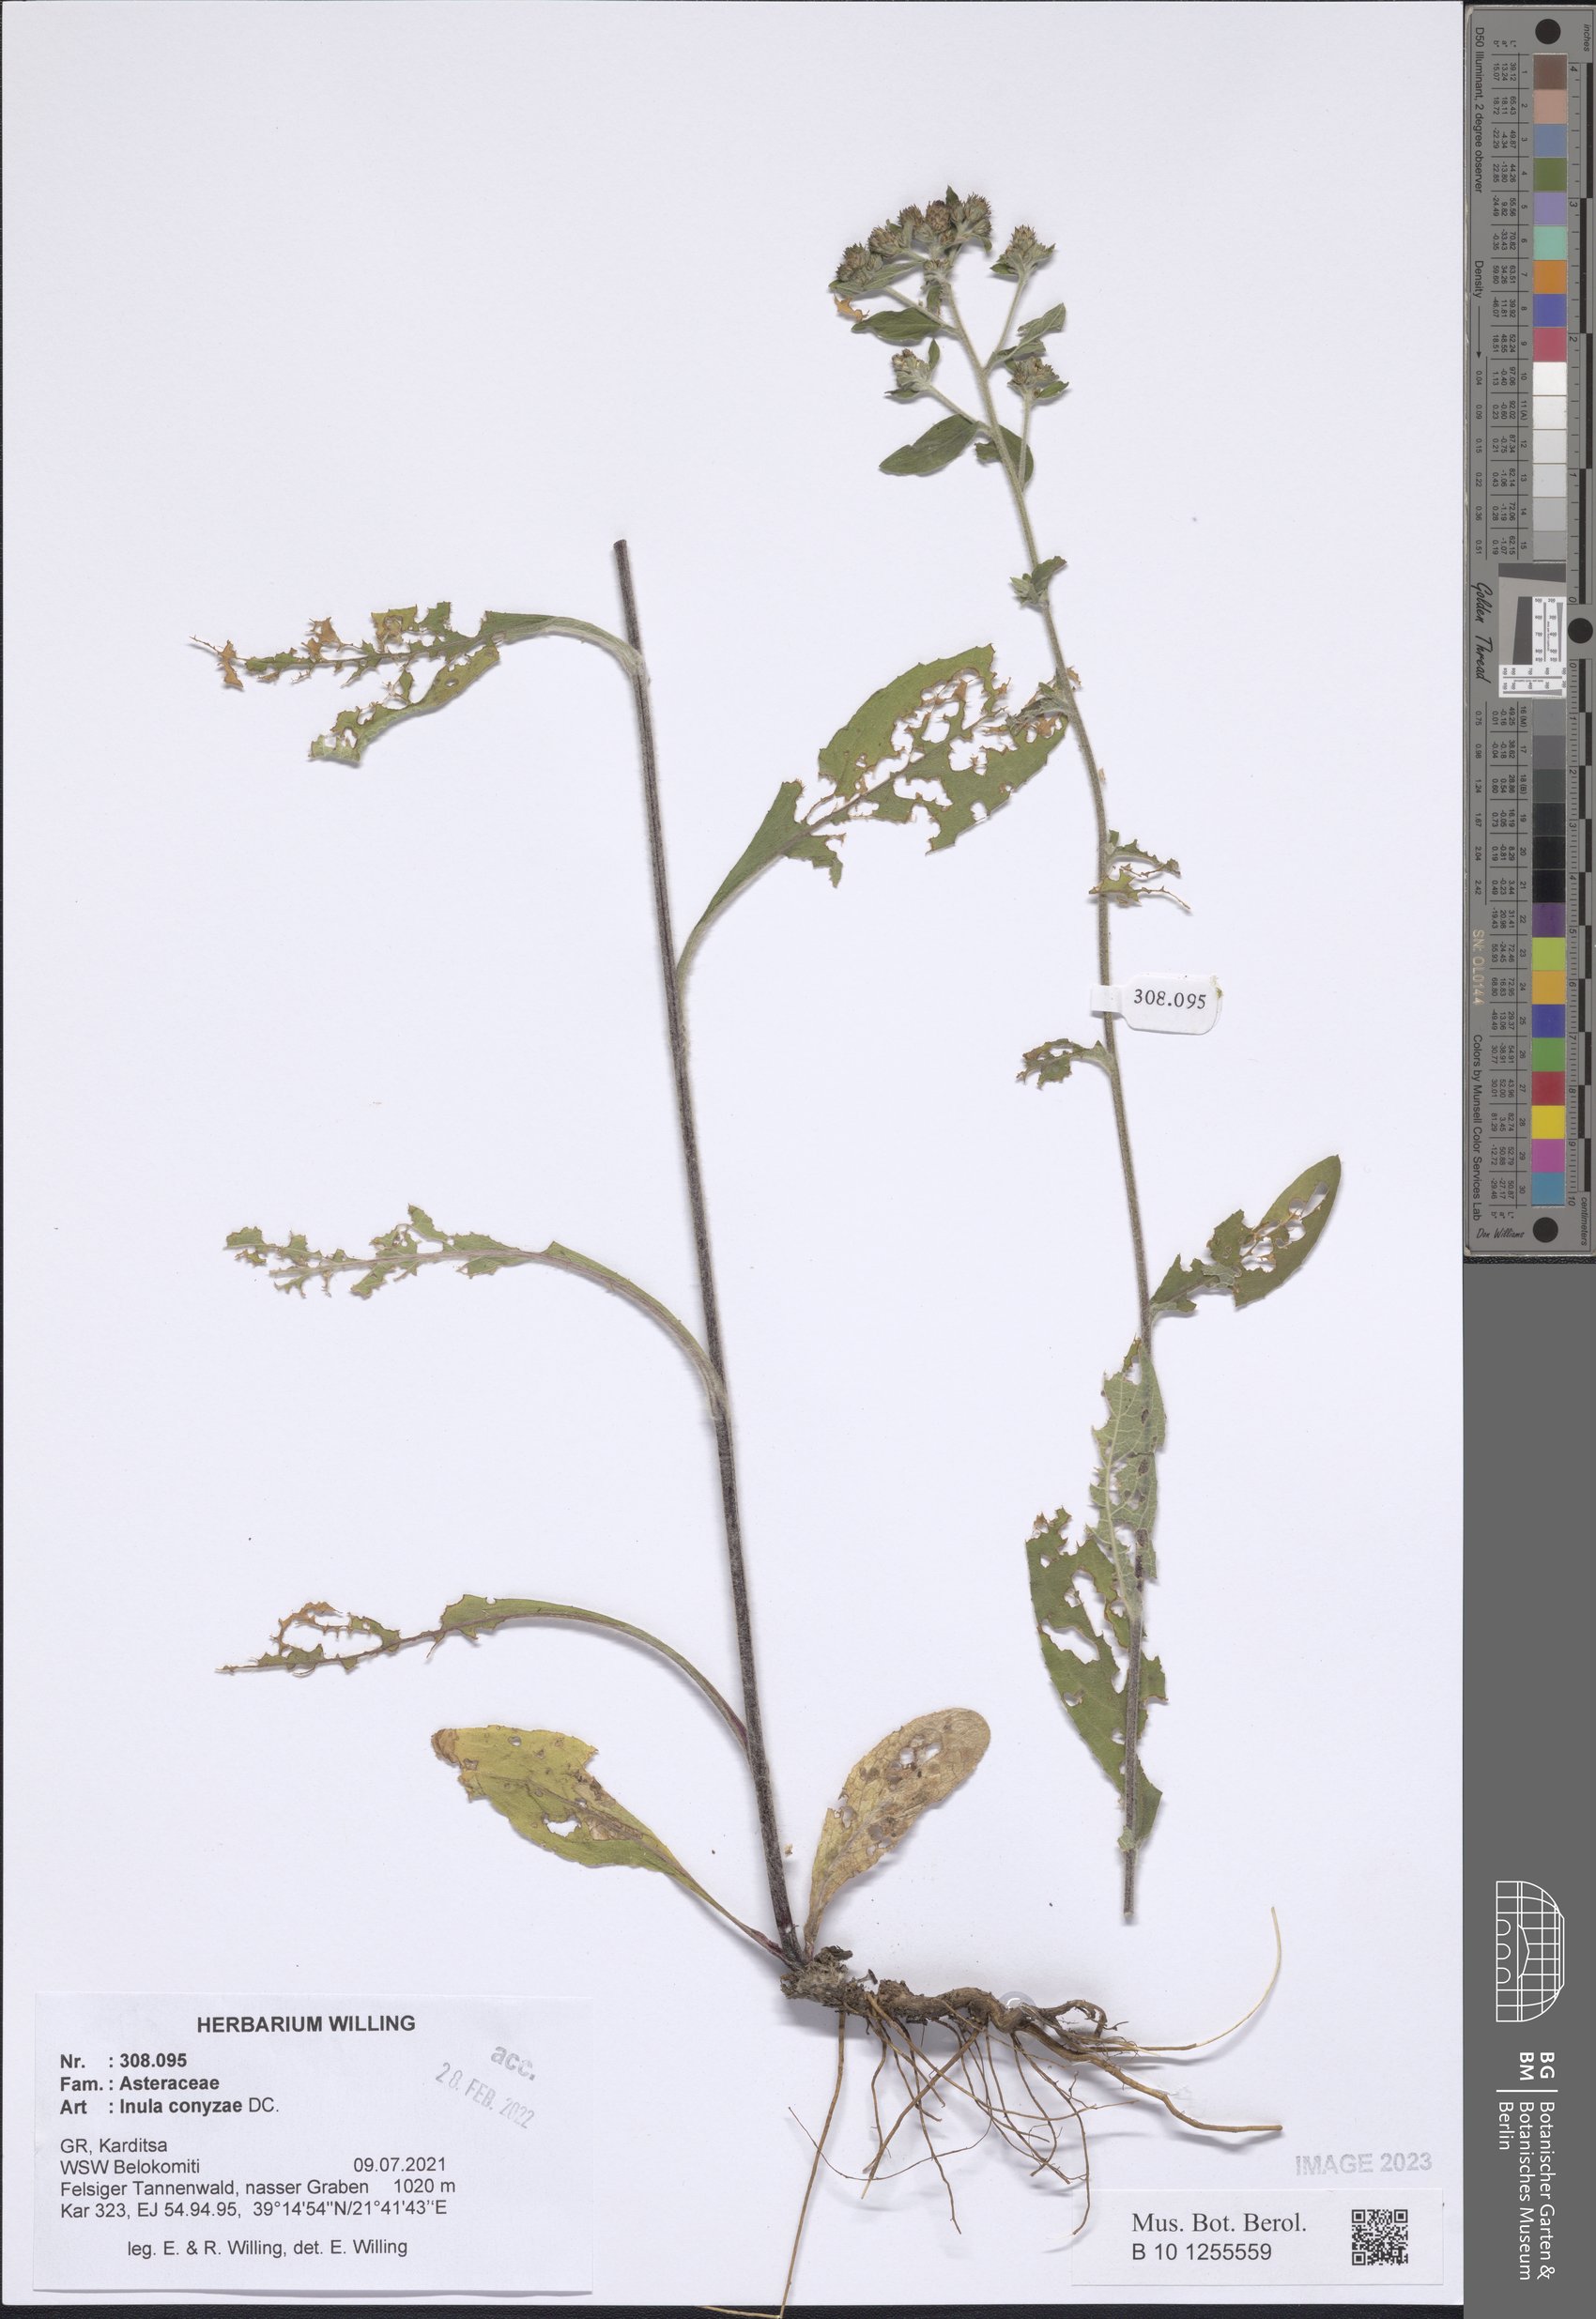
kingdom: Plantae
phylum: Tracheophyta
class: Magnoliopsida
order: Asterales
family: Asteraceae
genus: Pentanema
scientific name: Pentanema squarrosum
